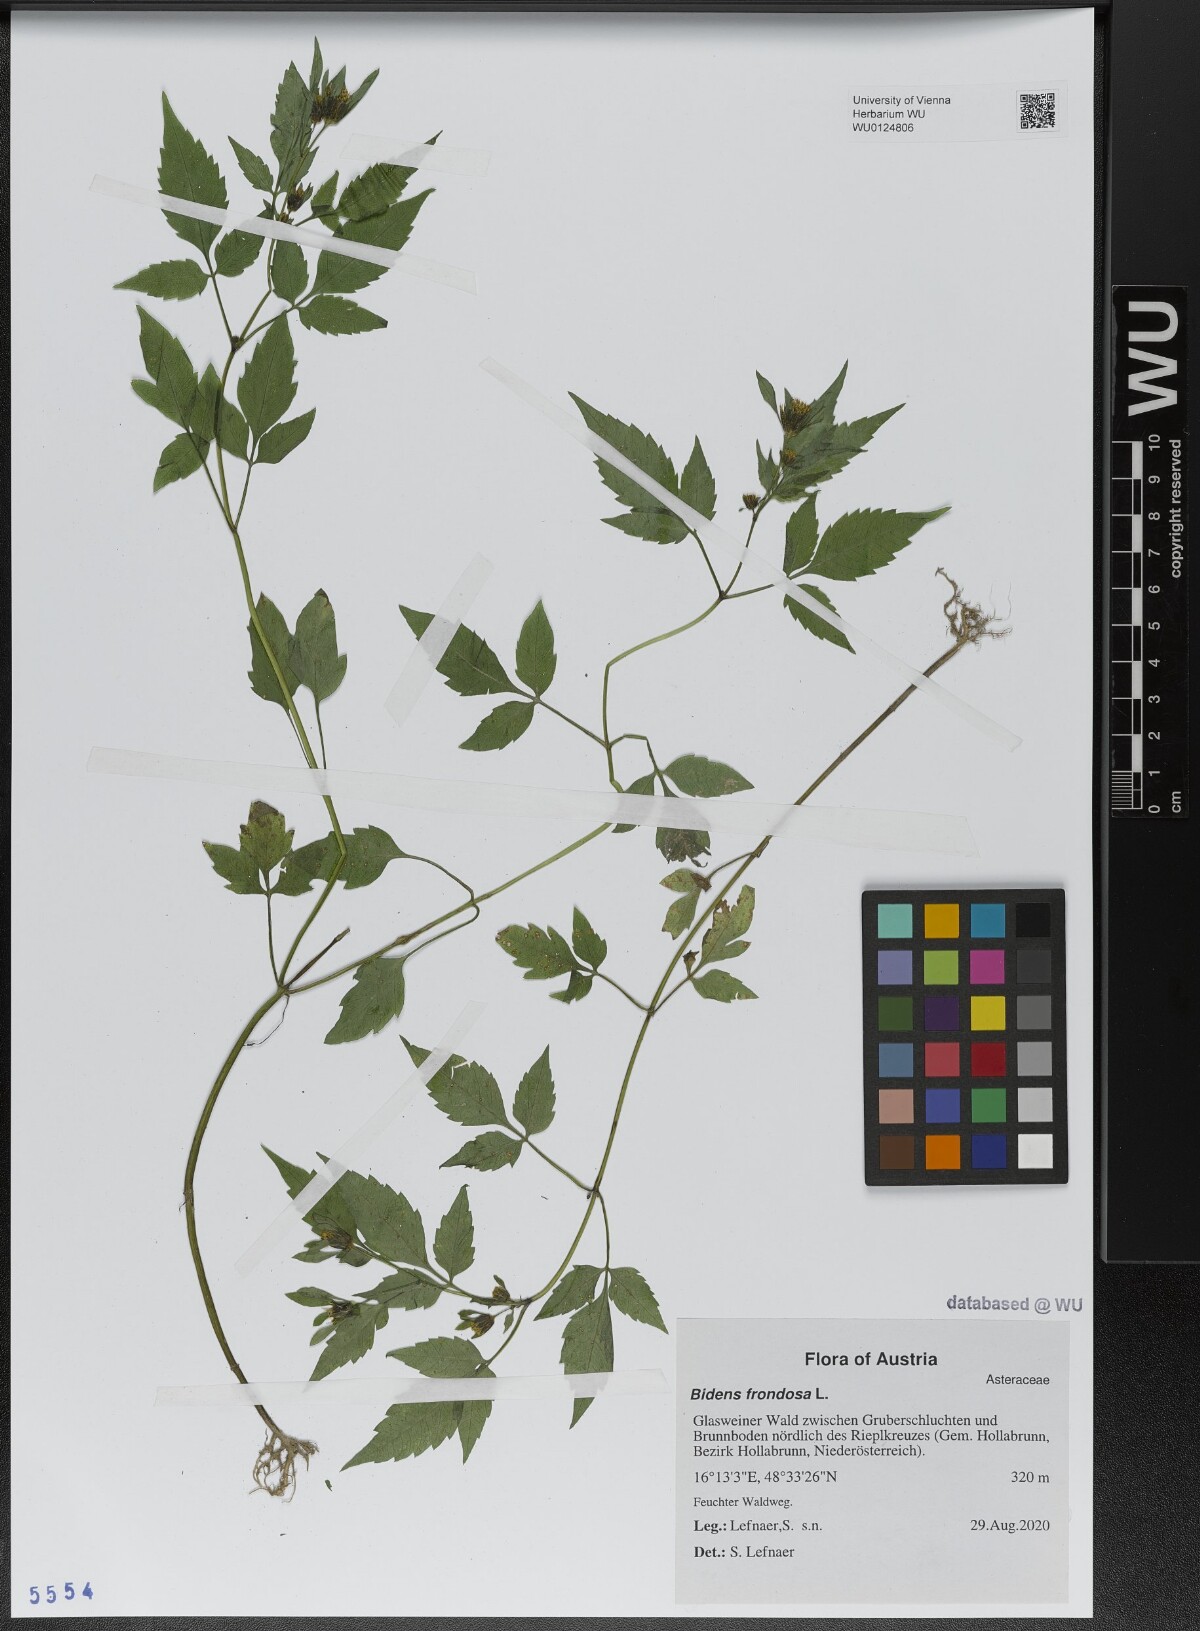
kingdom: Plantae
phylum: Tracheophyta
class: Magnoliopsida
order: Asterales
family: Asteraceae
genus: Bidens
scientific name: Bidens frondosa
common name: Beggarticks
